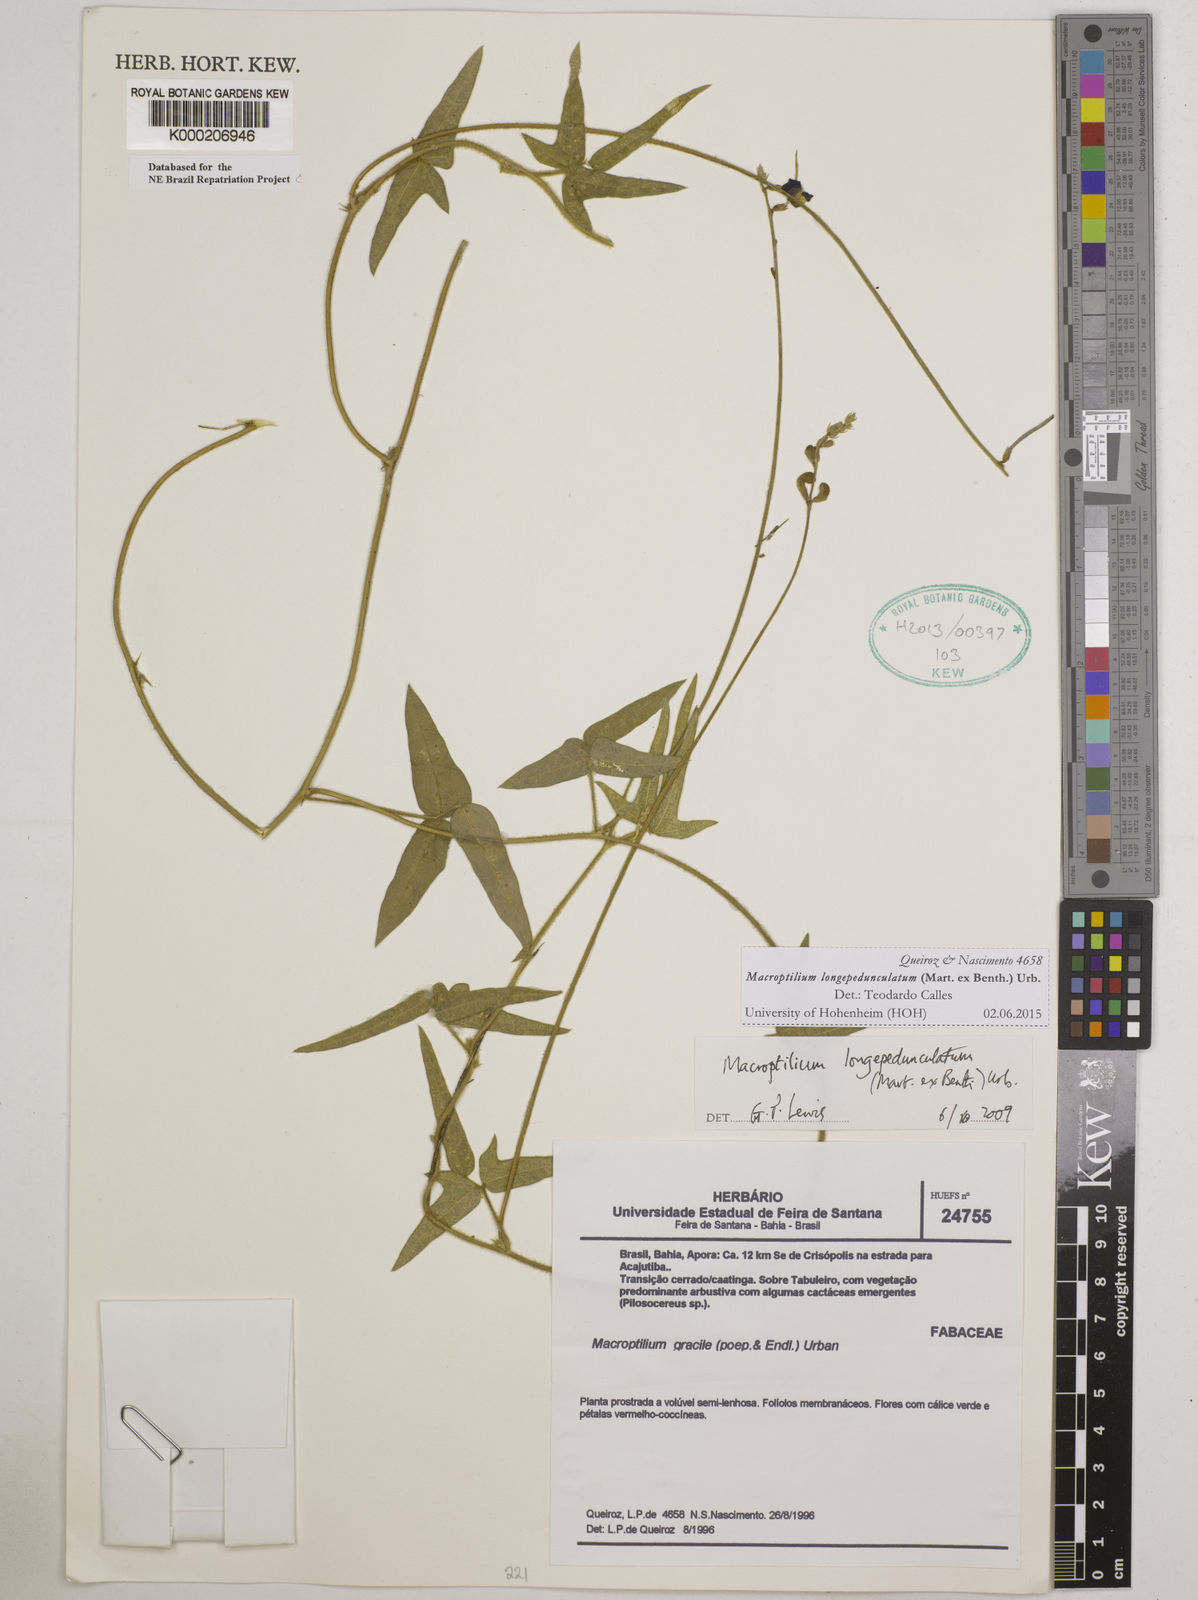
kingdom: Plantae
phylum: Tracheophyta
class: Magnoliopsida
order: Fabales
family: Fabaceae
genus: Macroptilium
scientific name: Macroptilium gracile
